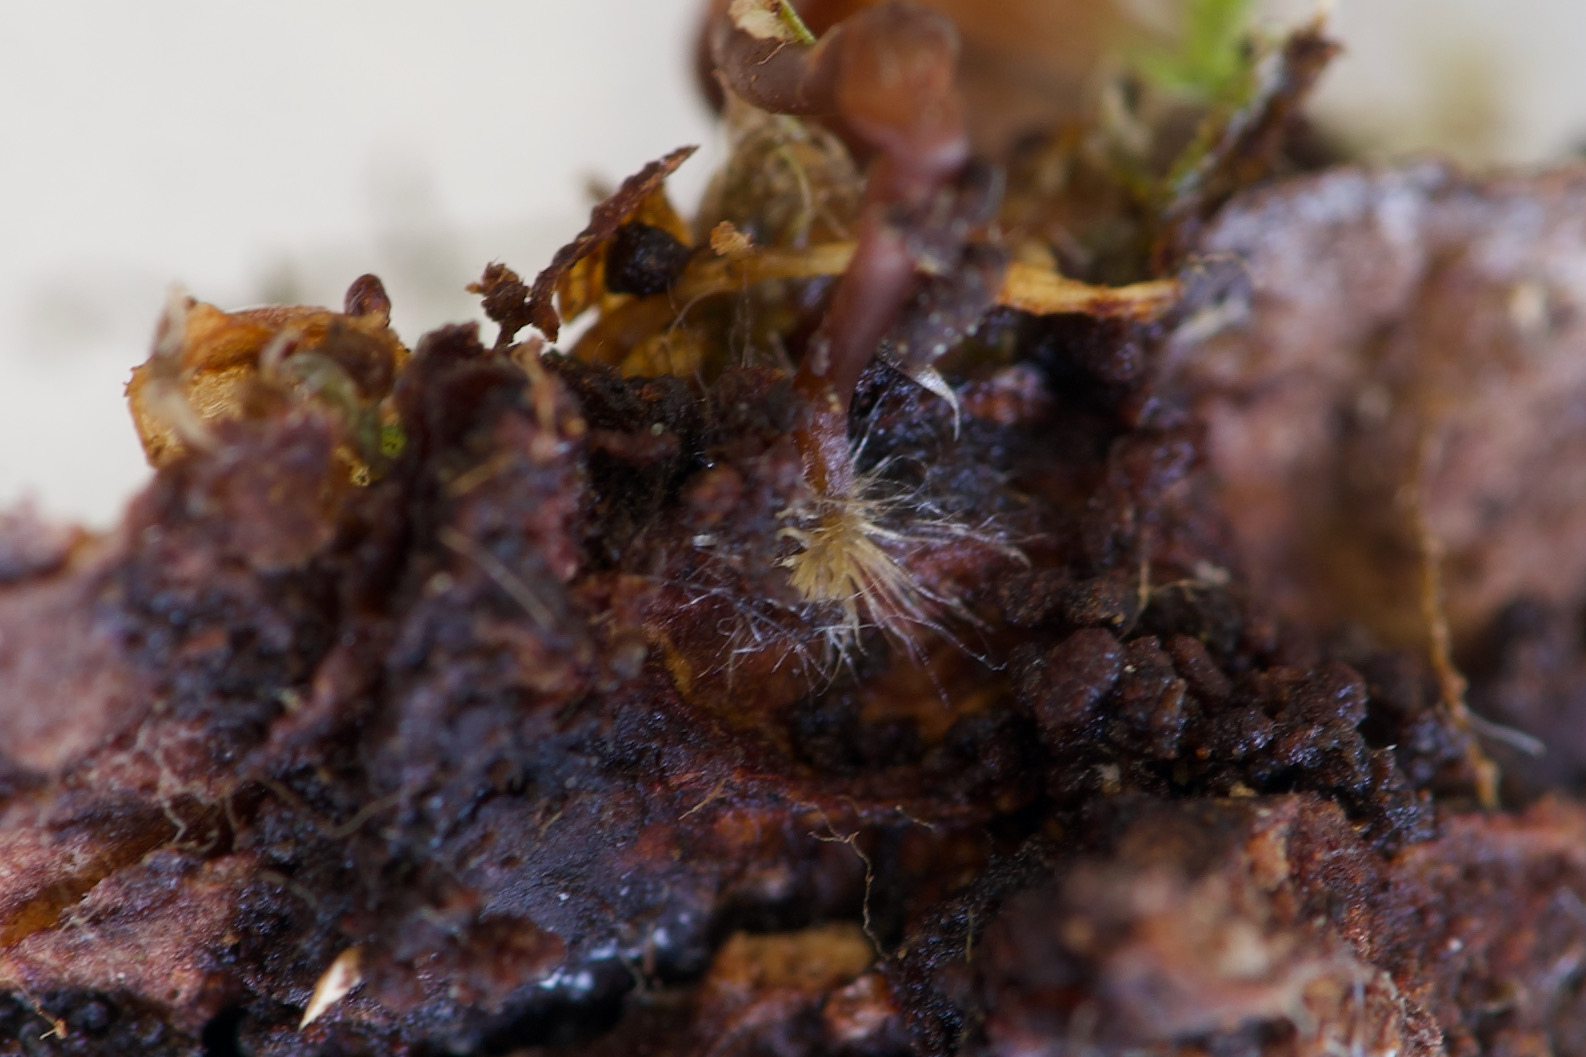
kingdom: Fungi
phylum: Basidiomycota
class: Agaricomycetes
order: Agaricales
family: Mycenaceae
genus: Mycena
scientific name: Mycena picta
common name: kantet huesvamp
